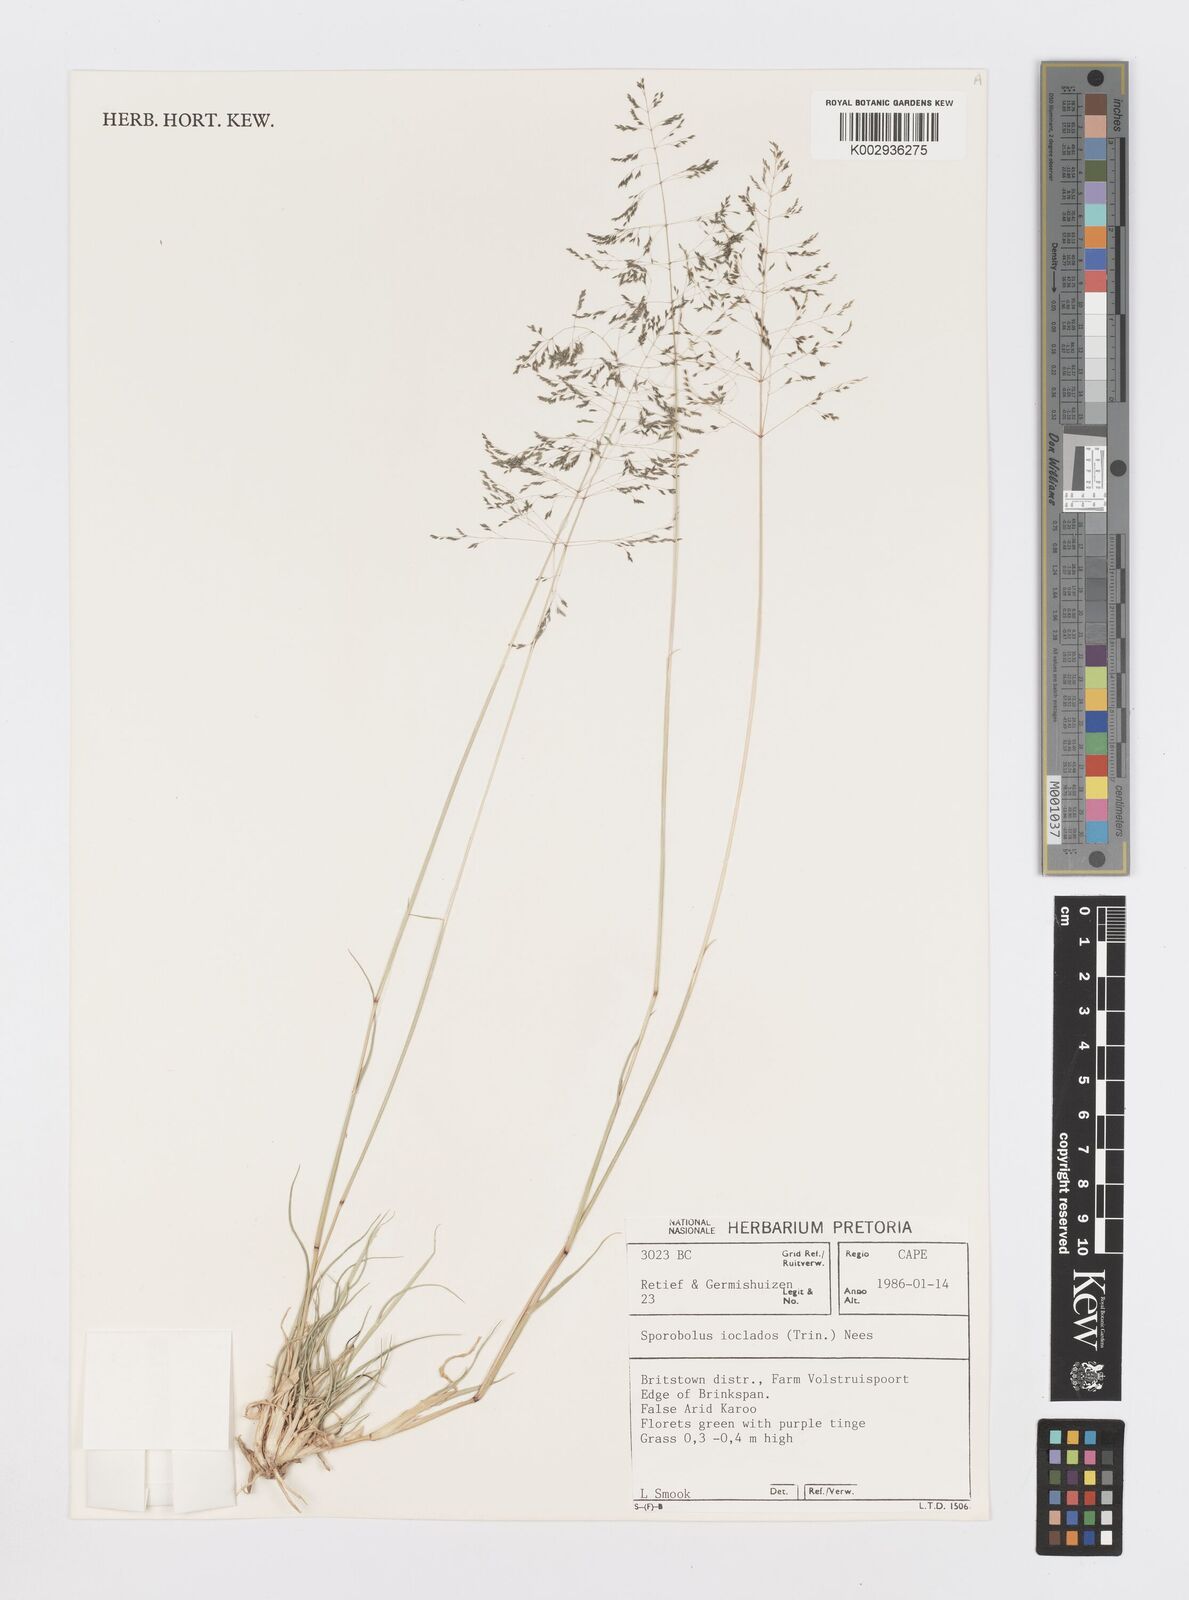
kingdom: Plantae
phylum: Tracheophyta
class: Liliopsida
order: Poales
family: Poaceae
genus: Sporobolus
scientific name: Sporobolus ioclados
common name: Pan dropseed
